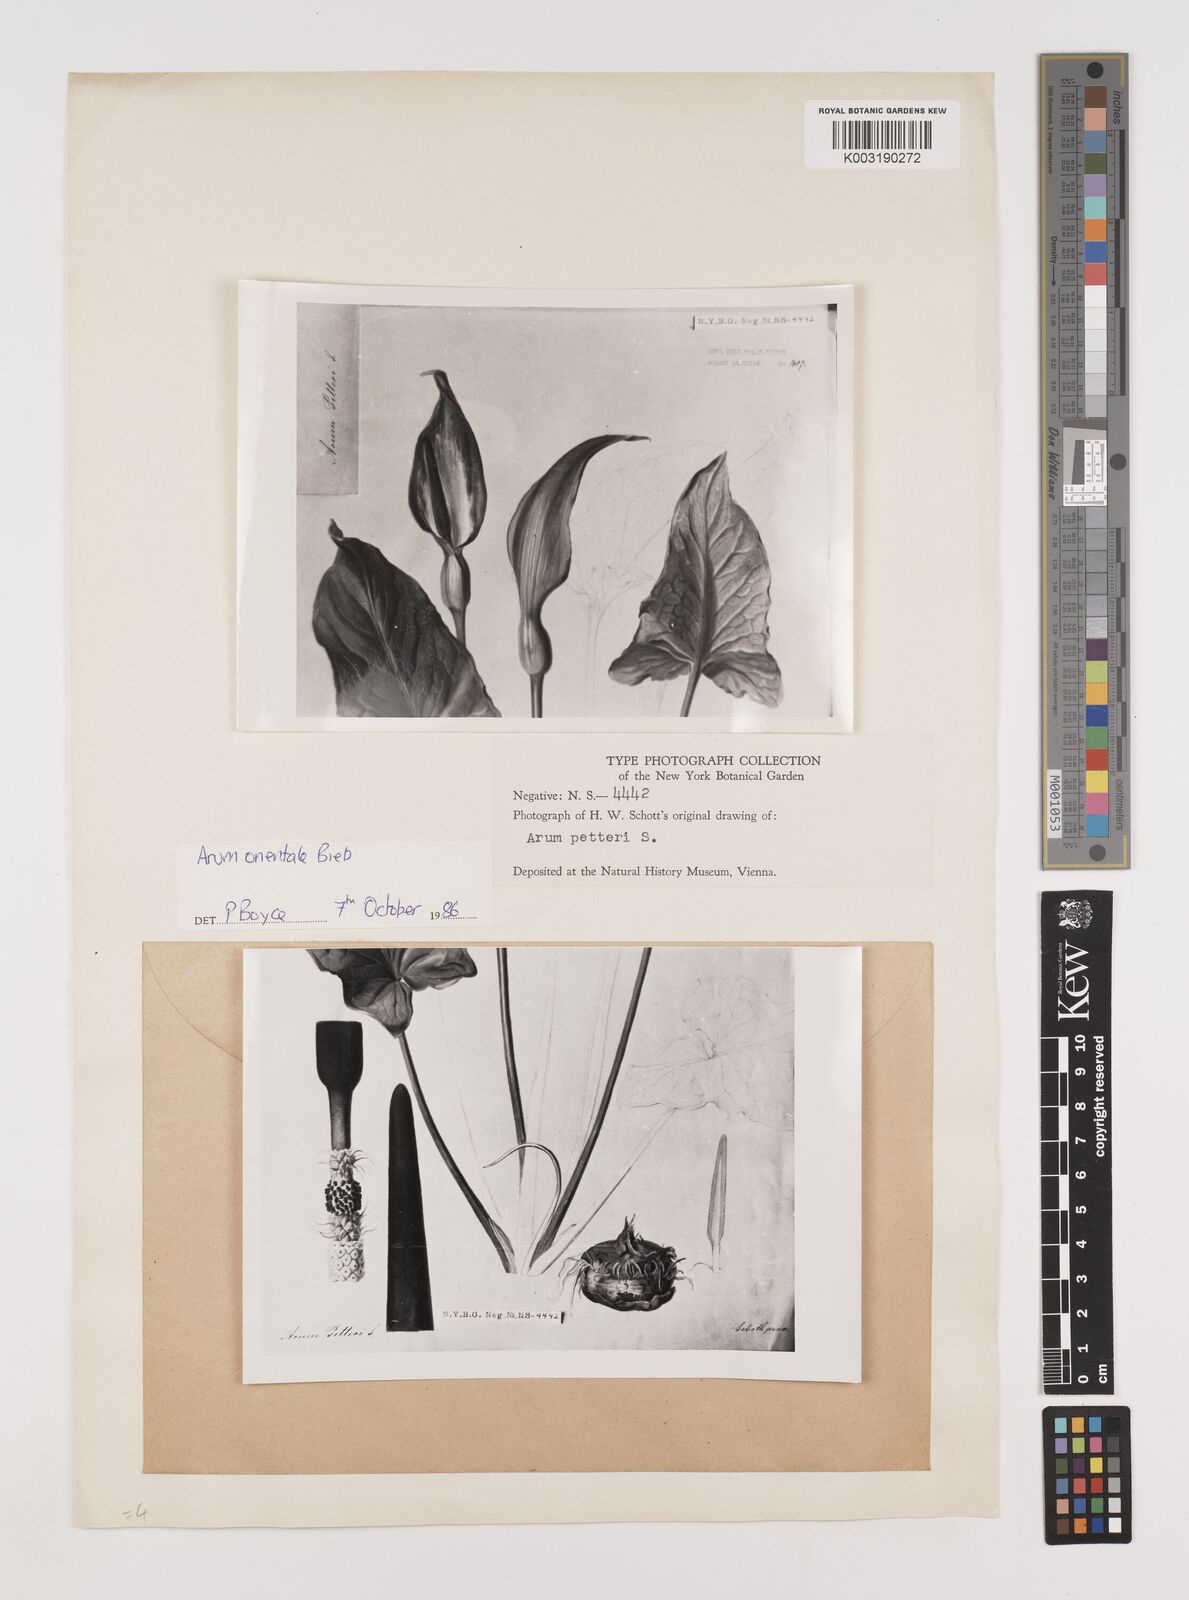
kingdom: Plantae
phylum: Tracheophyta
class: Liliopsida
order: Alismatales
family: Araceae
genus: Arum
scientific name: Arum orientale
